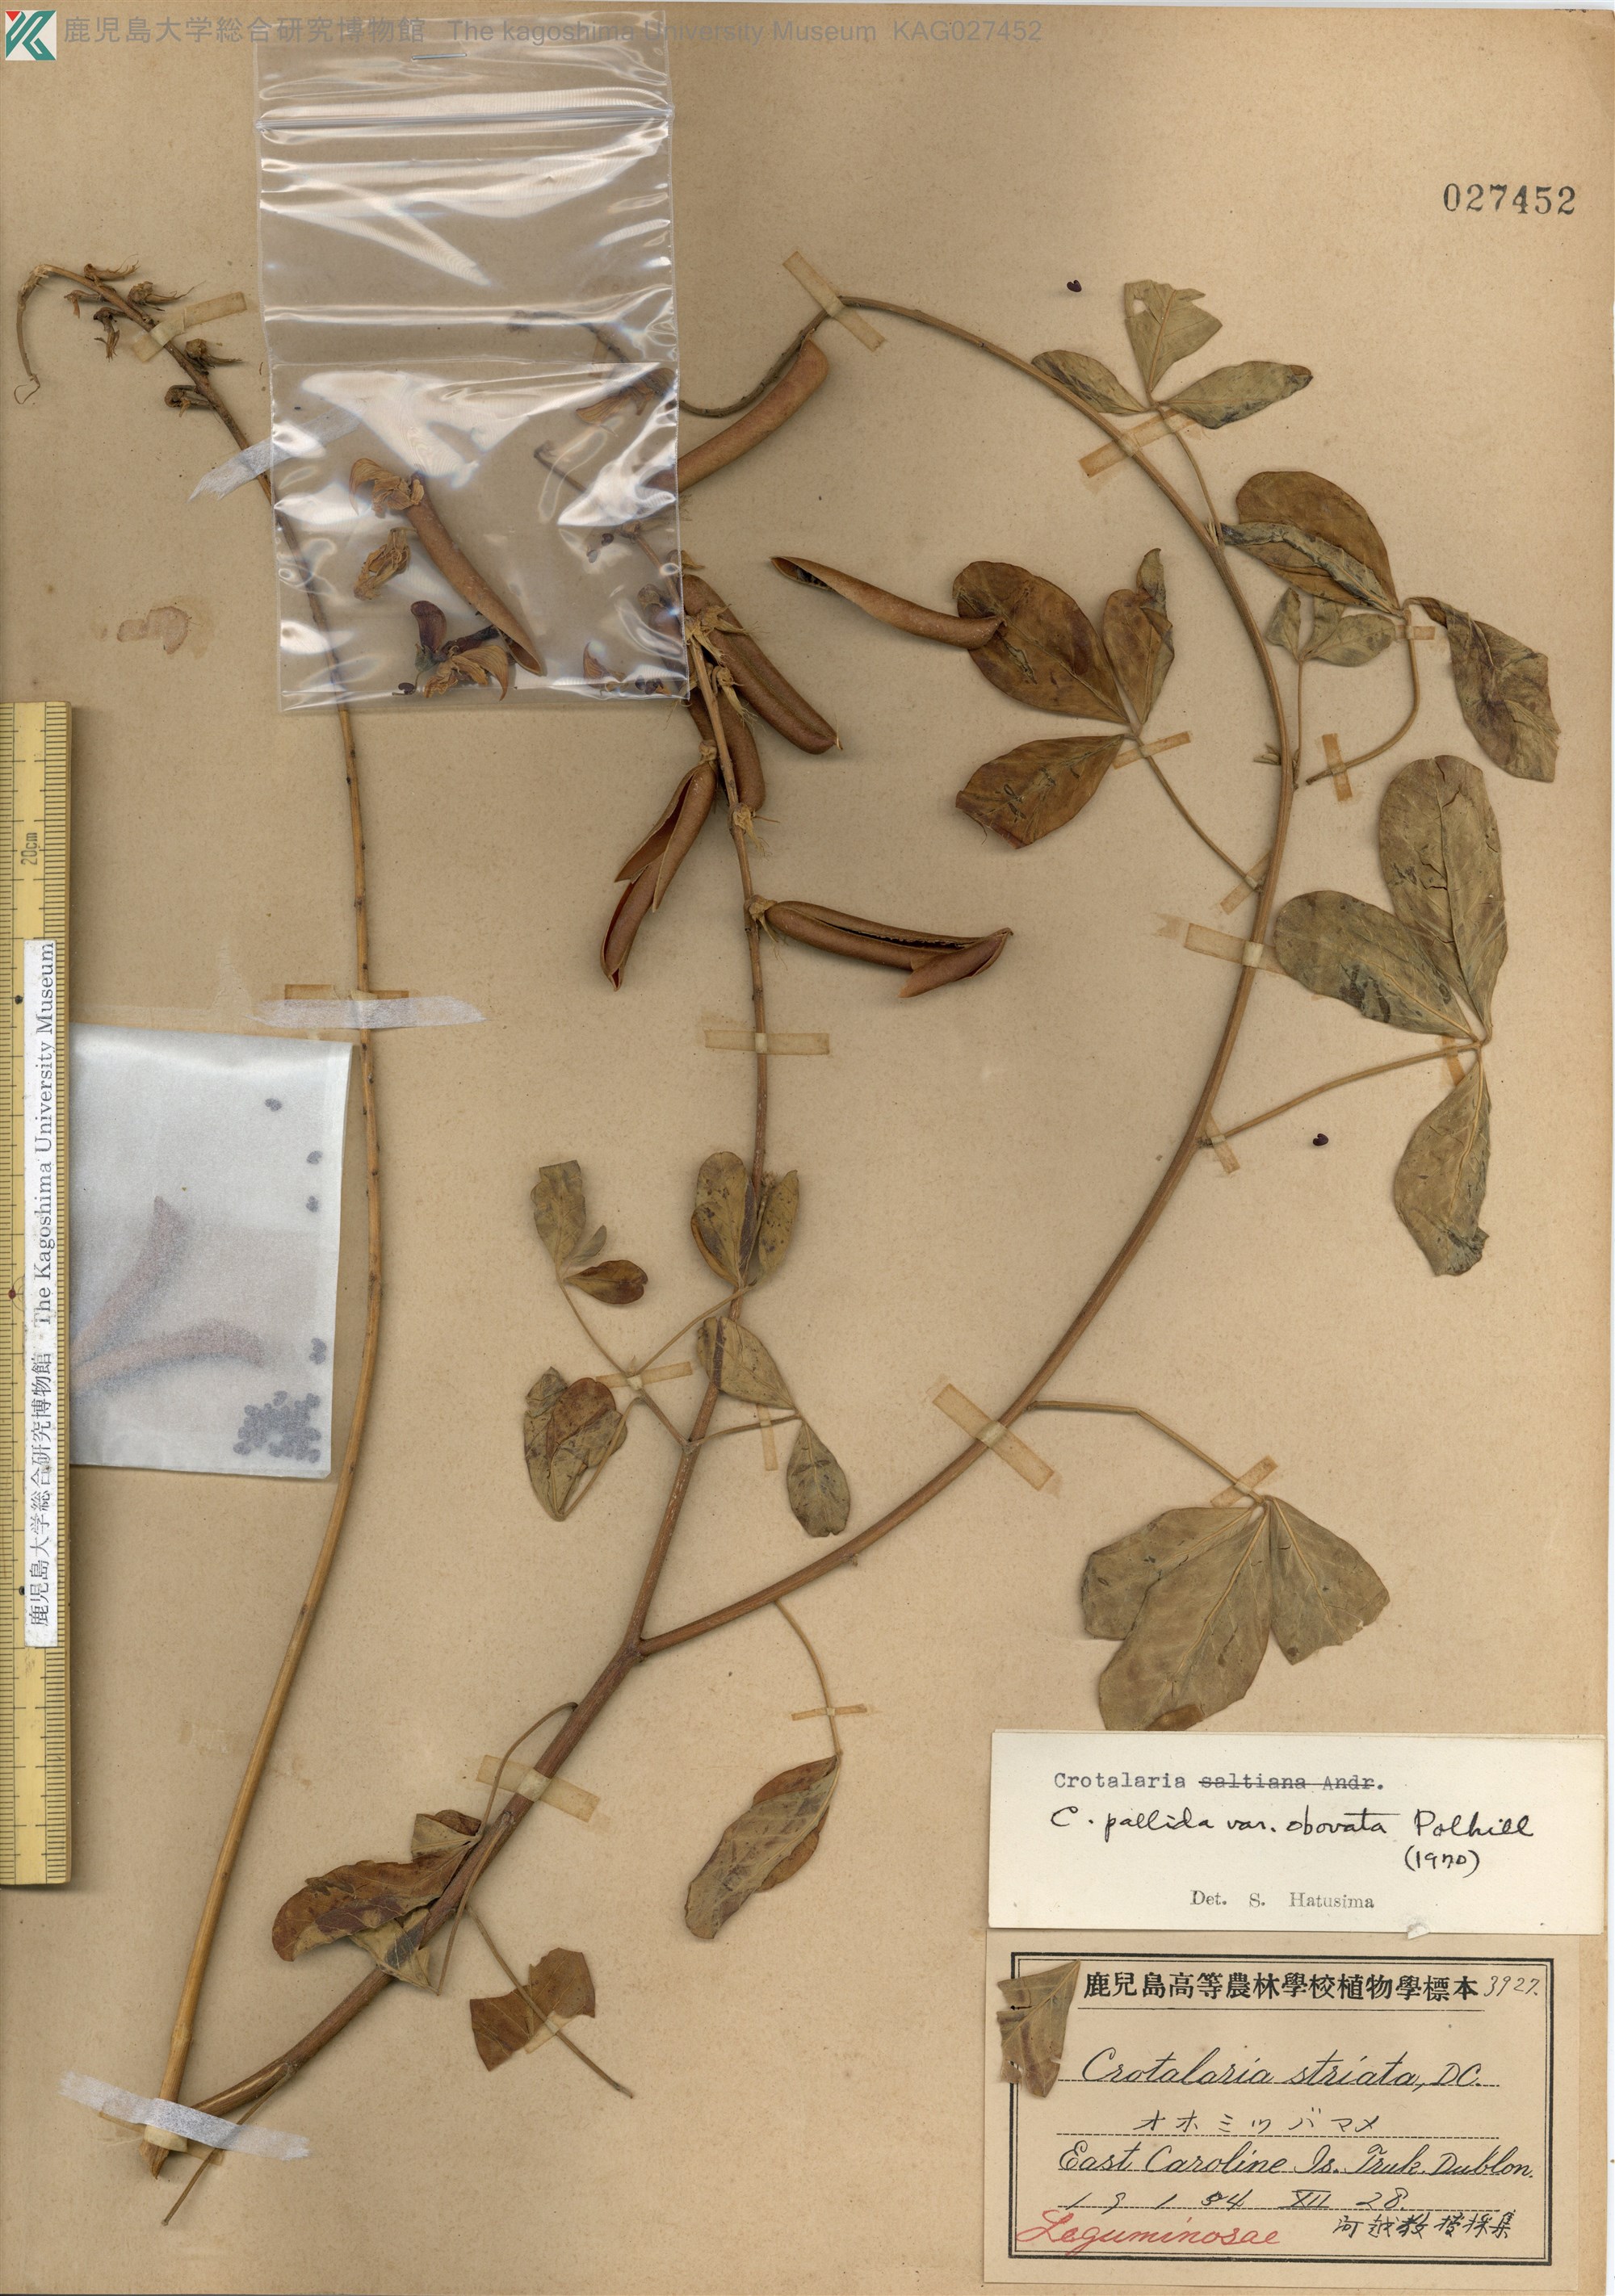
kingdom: Plantae
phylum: Tracheophyta
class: Magnoliopsida
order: Fabales
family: Fabaceae
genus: Crotalaria
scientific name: Crotalaria pallida
